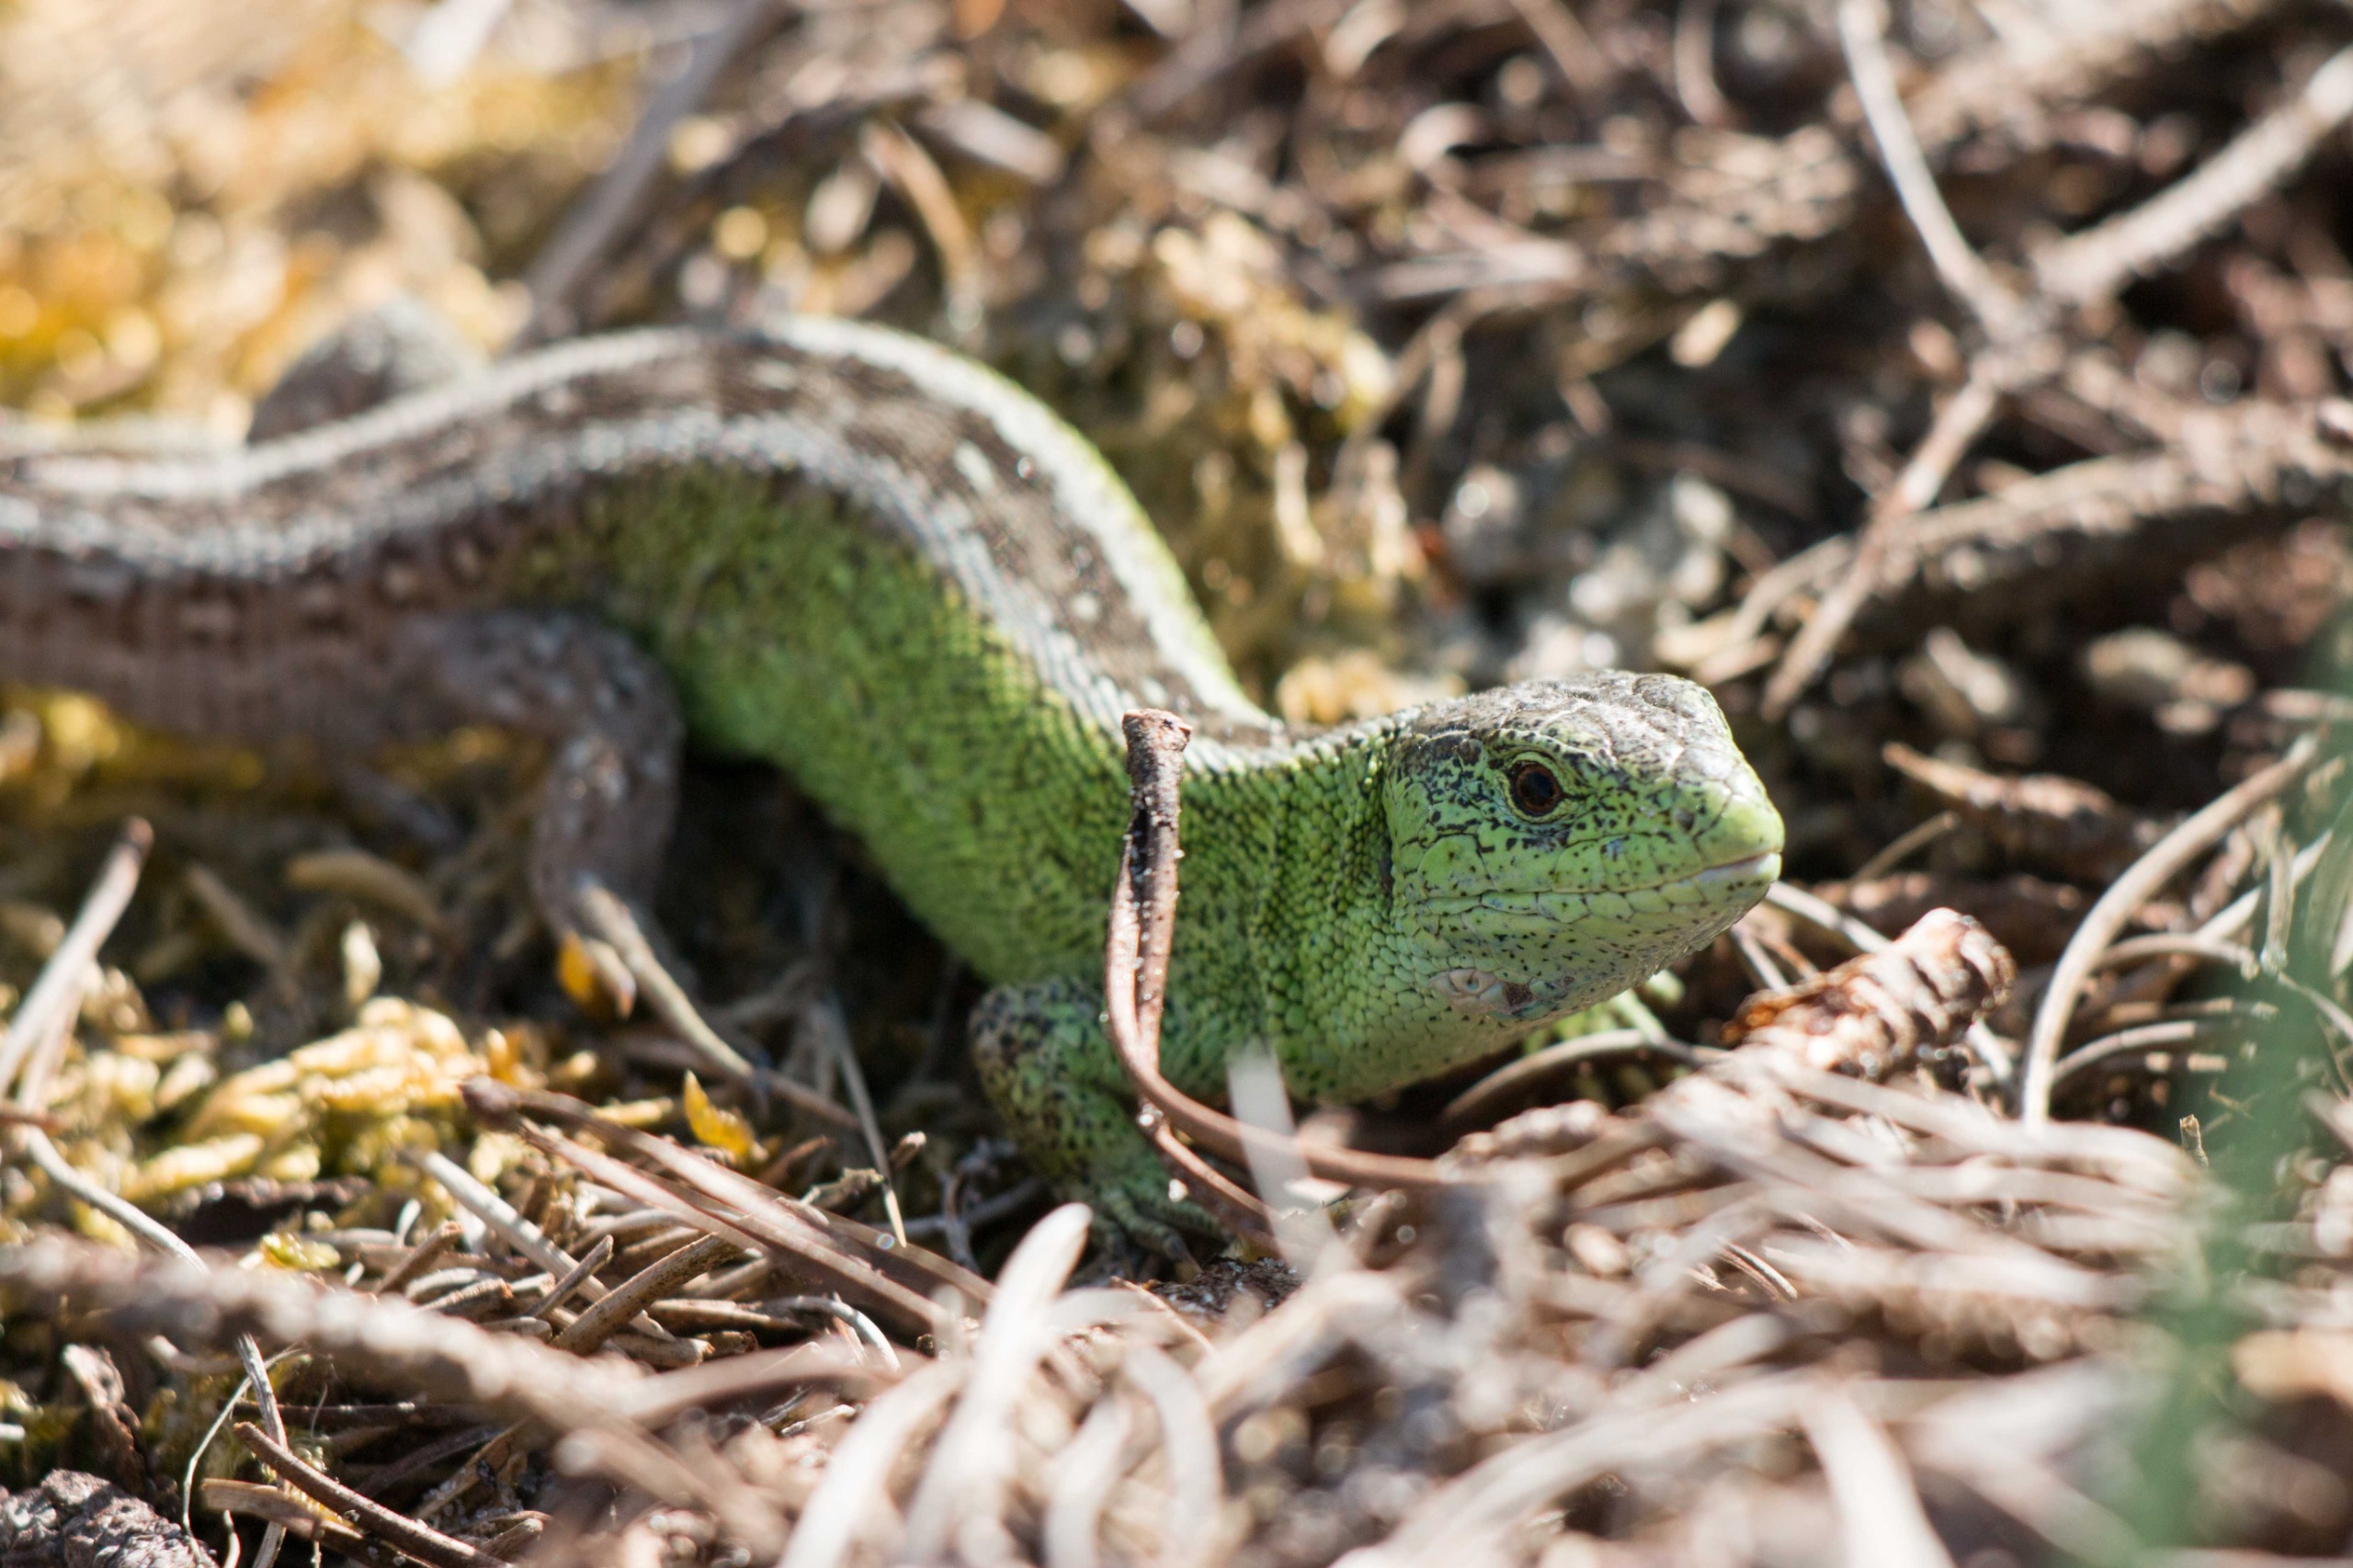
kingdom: Animalia
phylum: Chordata
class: Squamata
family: Lacertidae
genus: Lacerta
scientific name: Lacerta agilis
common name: Markfirben
